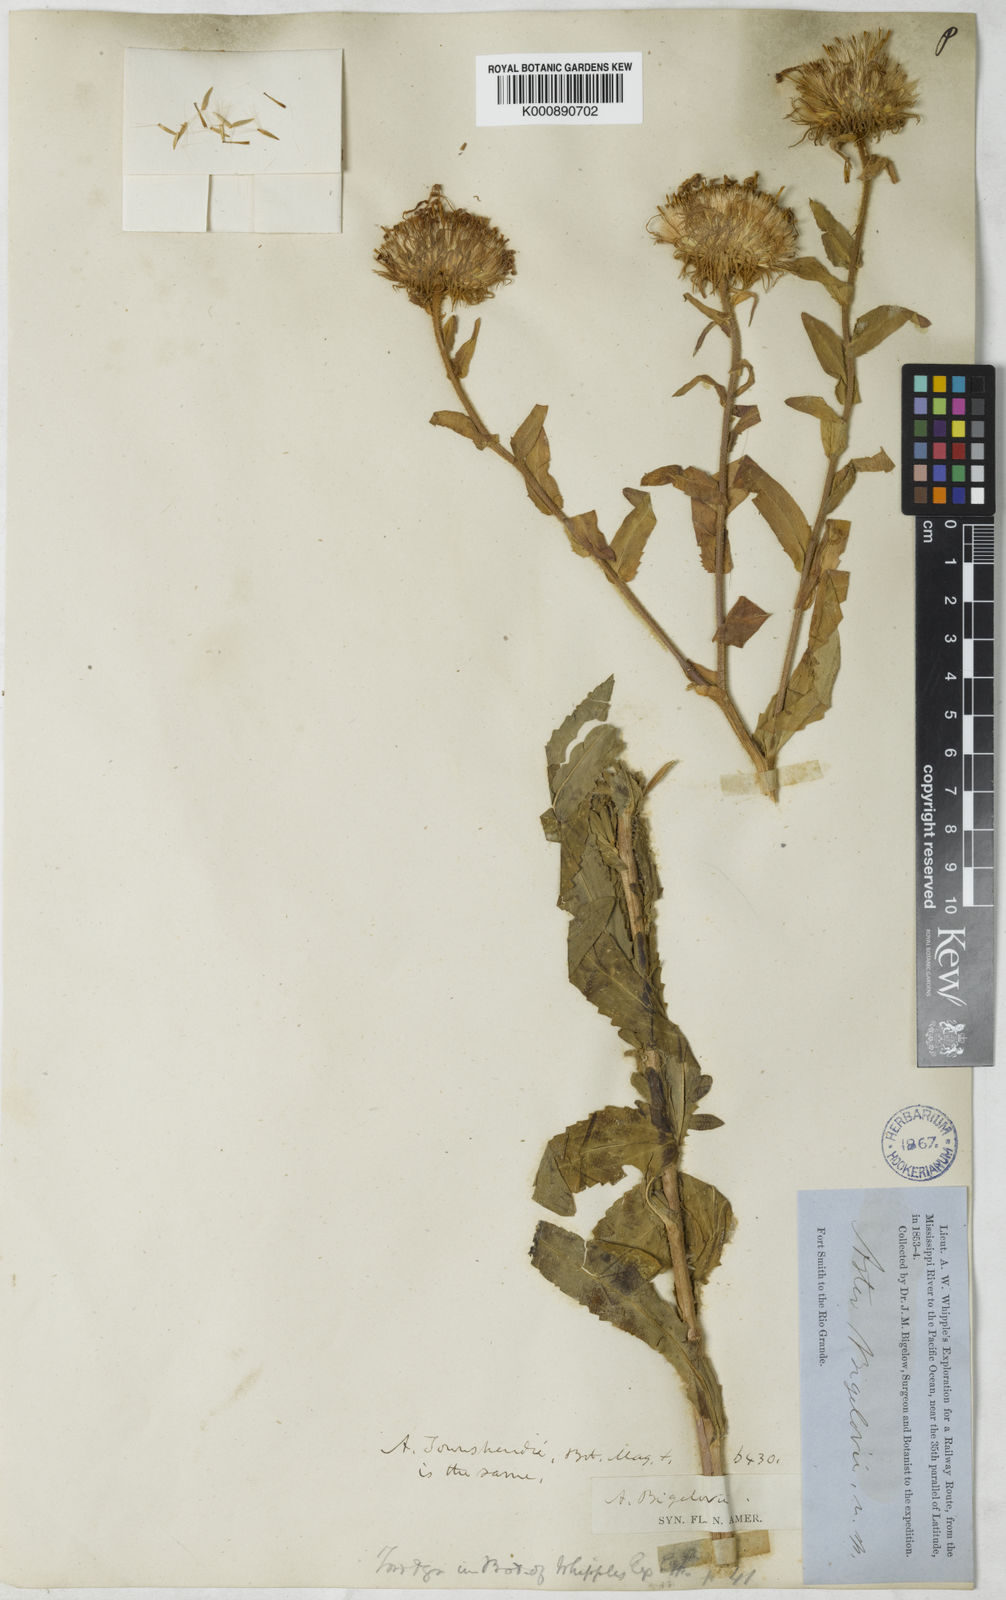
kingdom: Plantae
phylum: Tracheophyta
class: Magnoliopsida
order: Asterales
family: Asteraceae
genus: Dieteria
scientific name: Dieteria bigelovii
